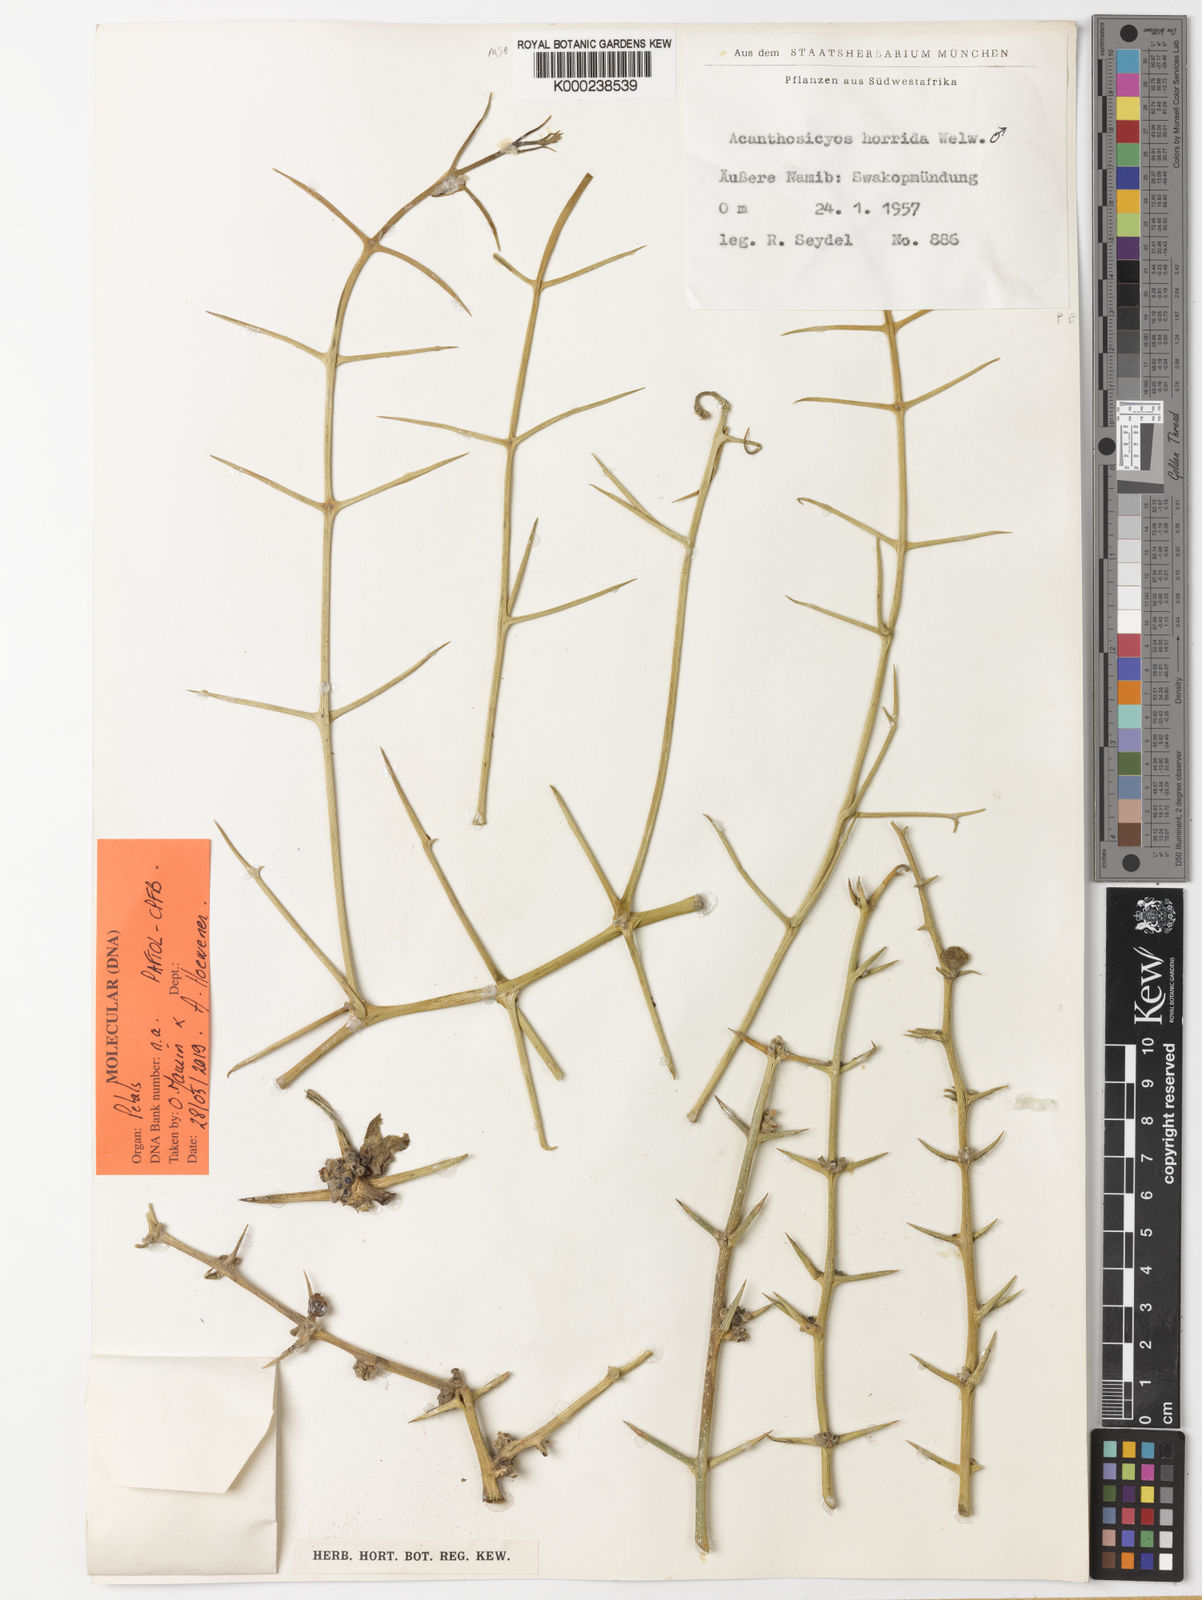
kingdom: Plantae
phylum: Tracheophyta
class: Magnoliopsida
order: Cucurbitales
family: Cucurbitaceae
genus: Acanthosicyos
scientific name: Acanthosicyos horridus
